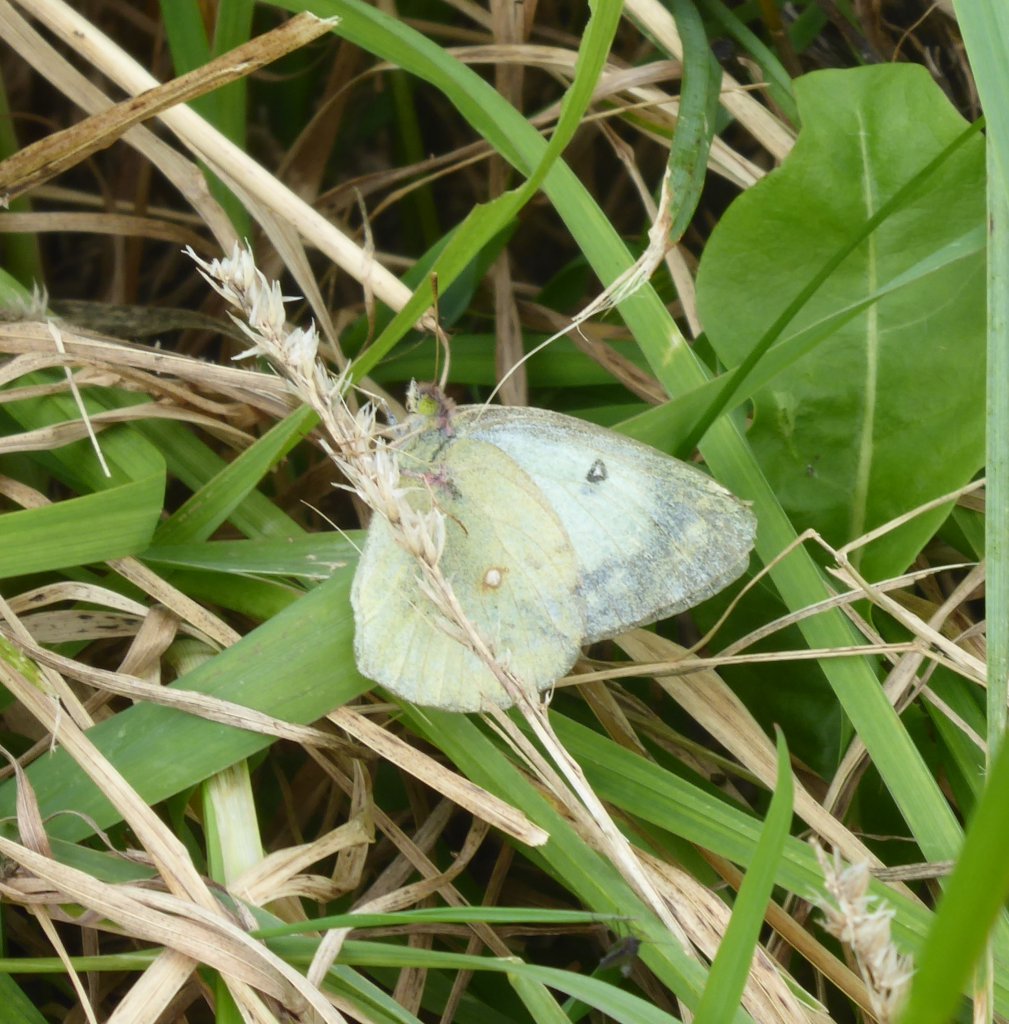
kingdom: Animalia
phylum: Arthropoda
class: Insecta
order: Lepidoptera
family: Pieridae
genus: Colias
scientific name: Colias philodice
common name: Clouded Sulphur
